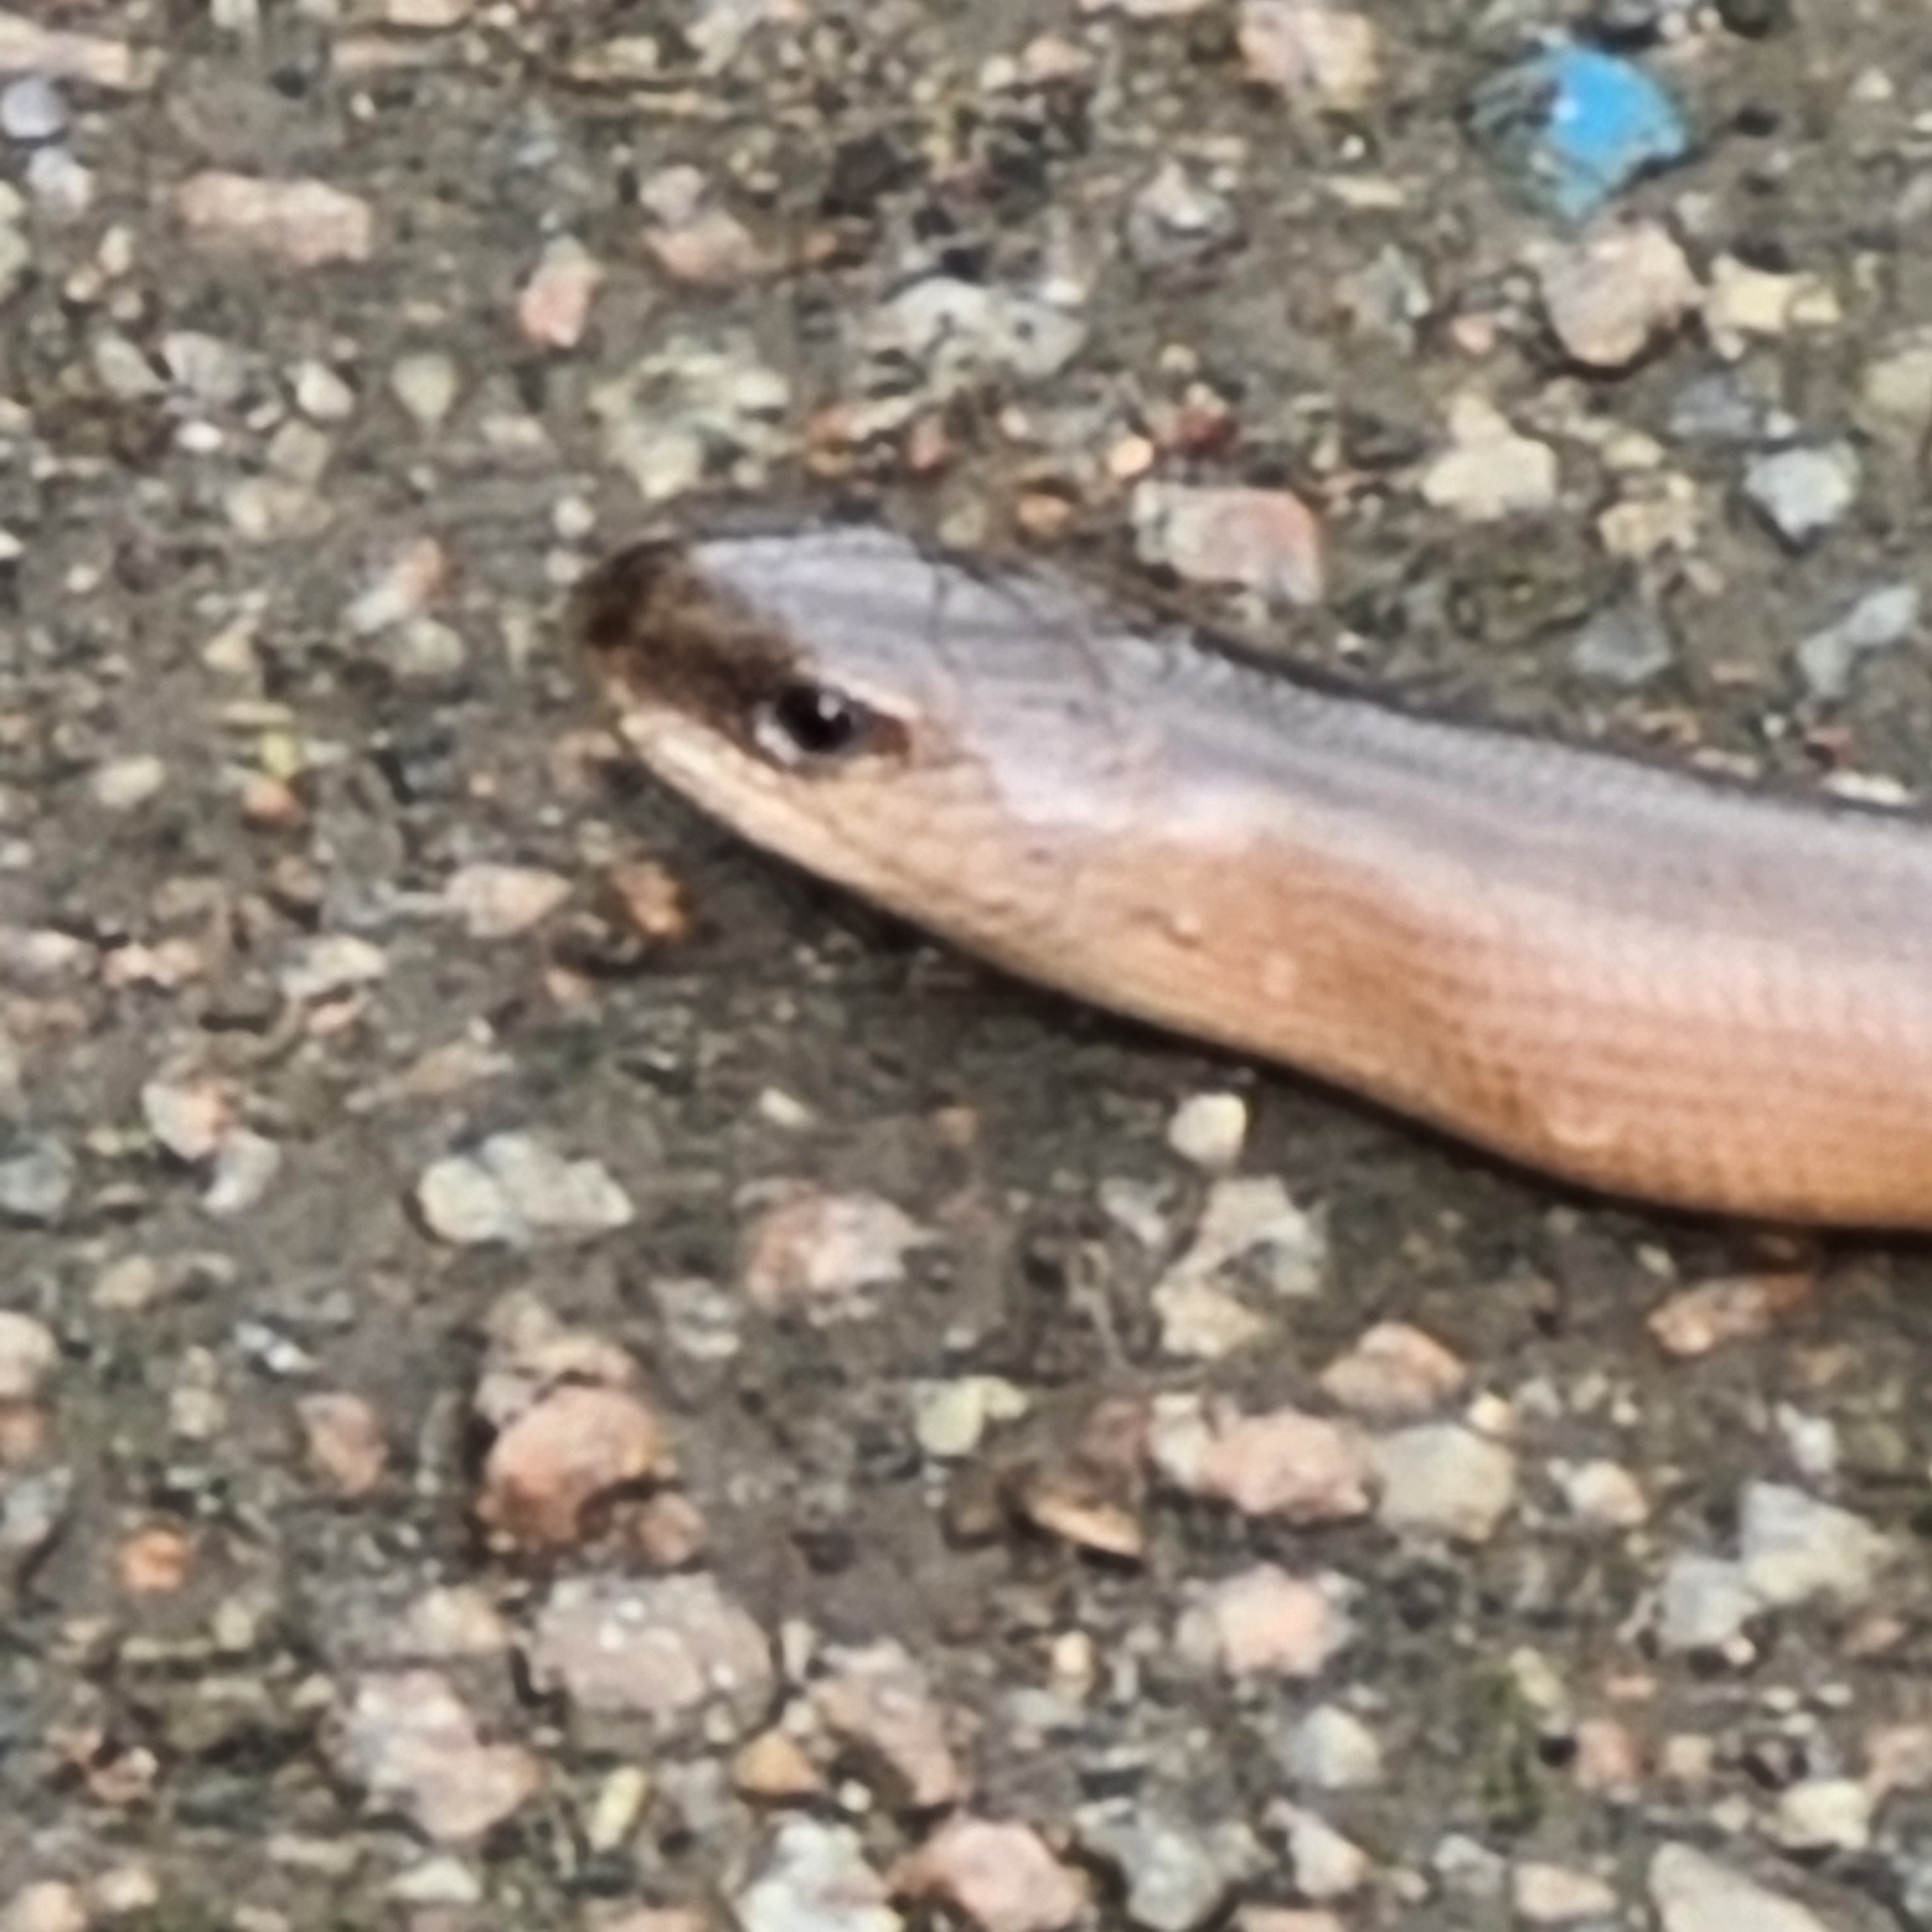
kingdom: Animalia
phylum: Chordata
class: Squamata
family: Anguidae
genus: Anguis
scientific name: Anguis fragilis
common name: Stålorm
